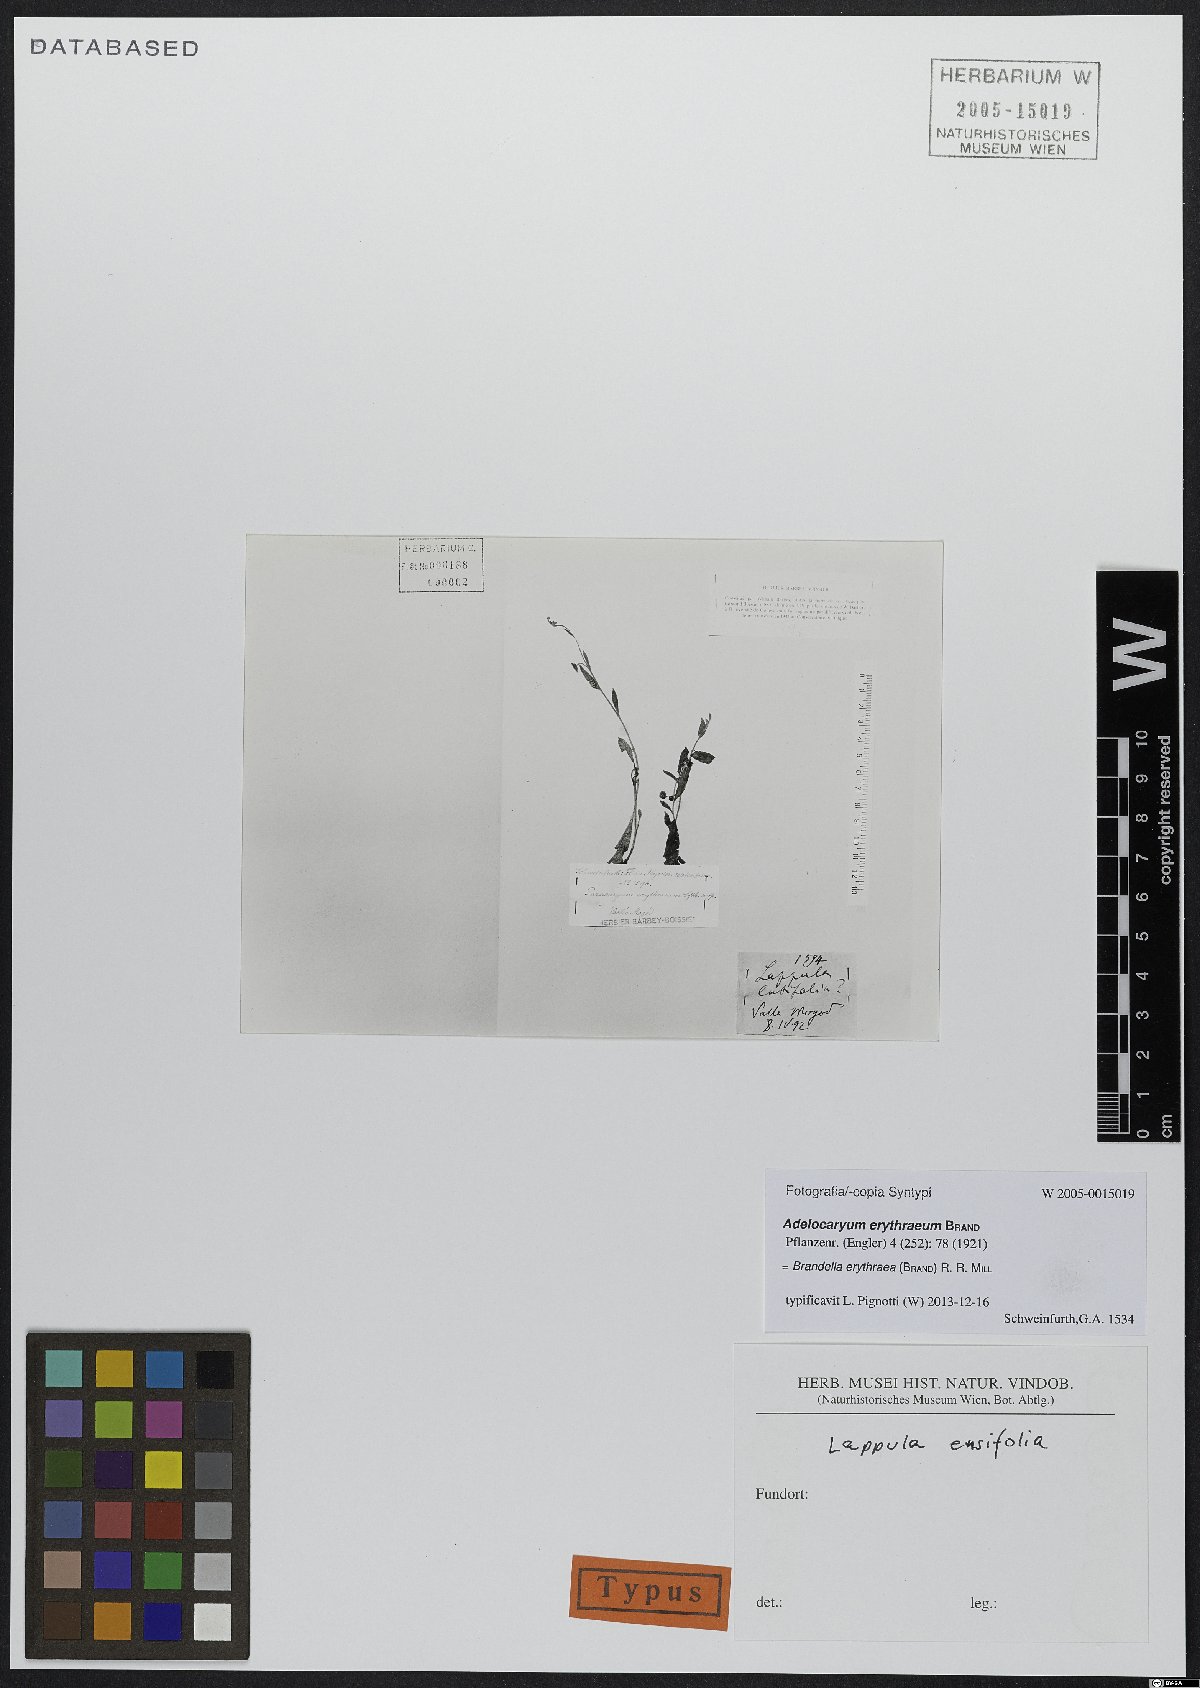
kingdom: Plantae
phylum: Tracheophyta
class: Magnoliopsida
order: Boraginales
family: Boraginaceae
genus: Brandella
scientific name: Brandella erythraea
